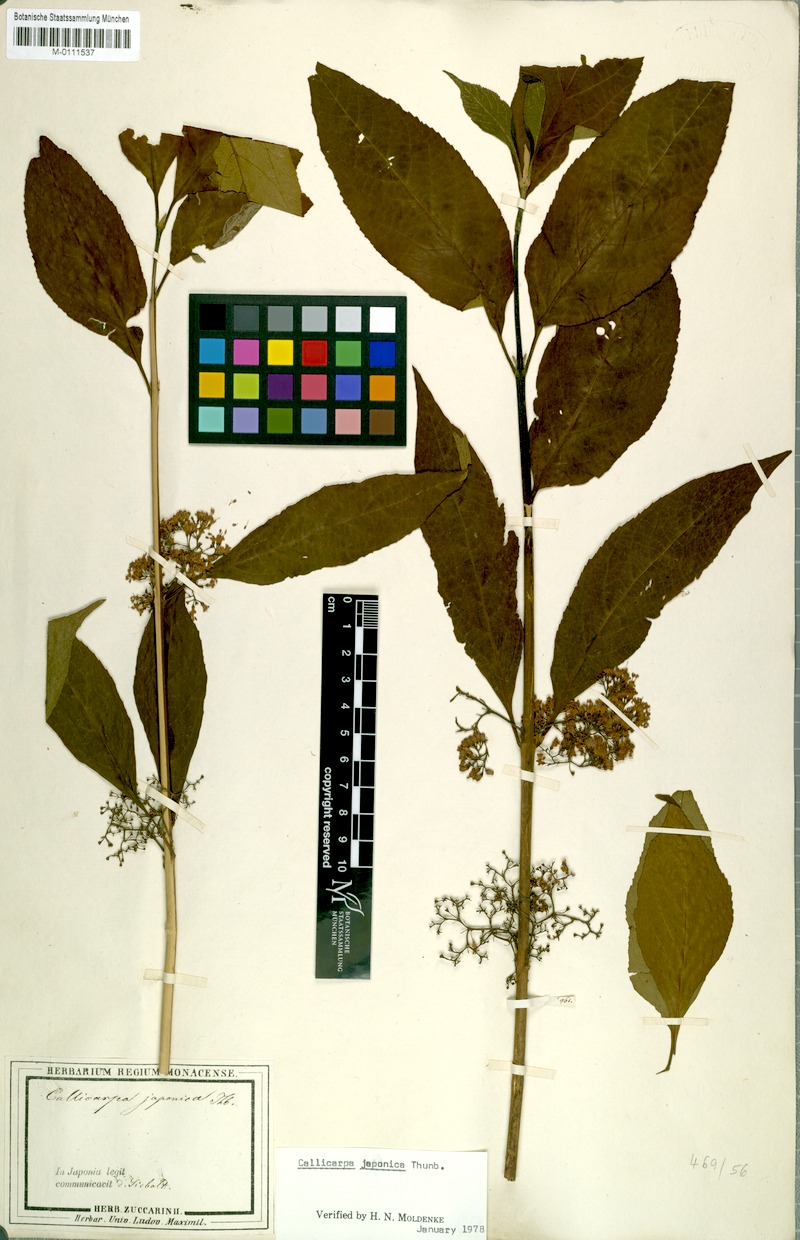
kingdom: Plantae
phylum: Tracheophyta
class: Magnoliopsida
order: Lamiales
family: Lamiaceae
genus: Callicarpa
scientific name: Callicarpa japonica
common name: Japanese beauty-berry
